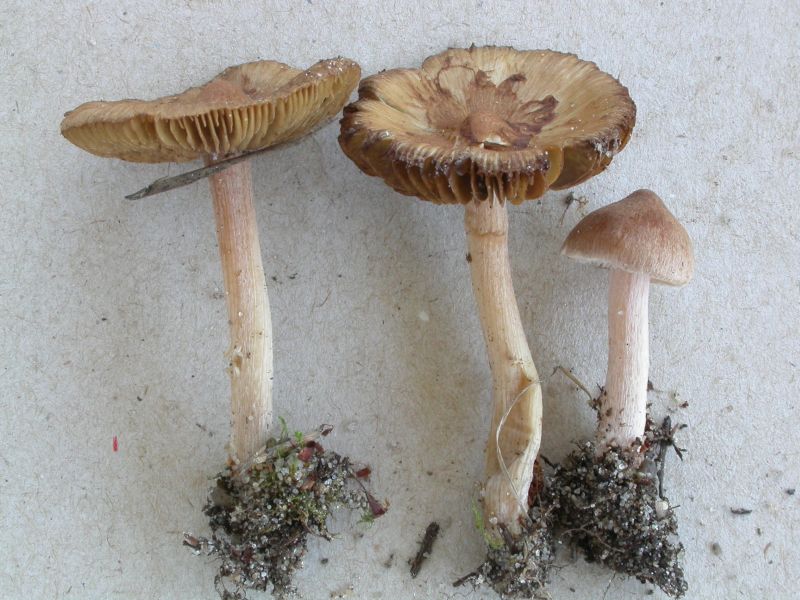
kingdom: Fungi
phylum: Basidiomycota
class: Agaricomycetes
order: Agaricales
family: Inocybaceae
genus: Inocybe
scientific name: Inocybe
